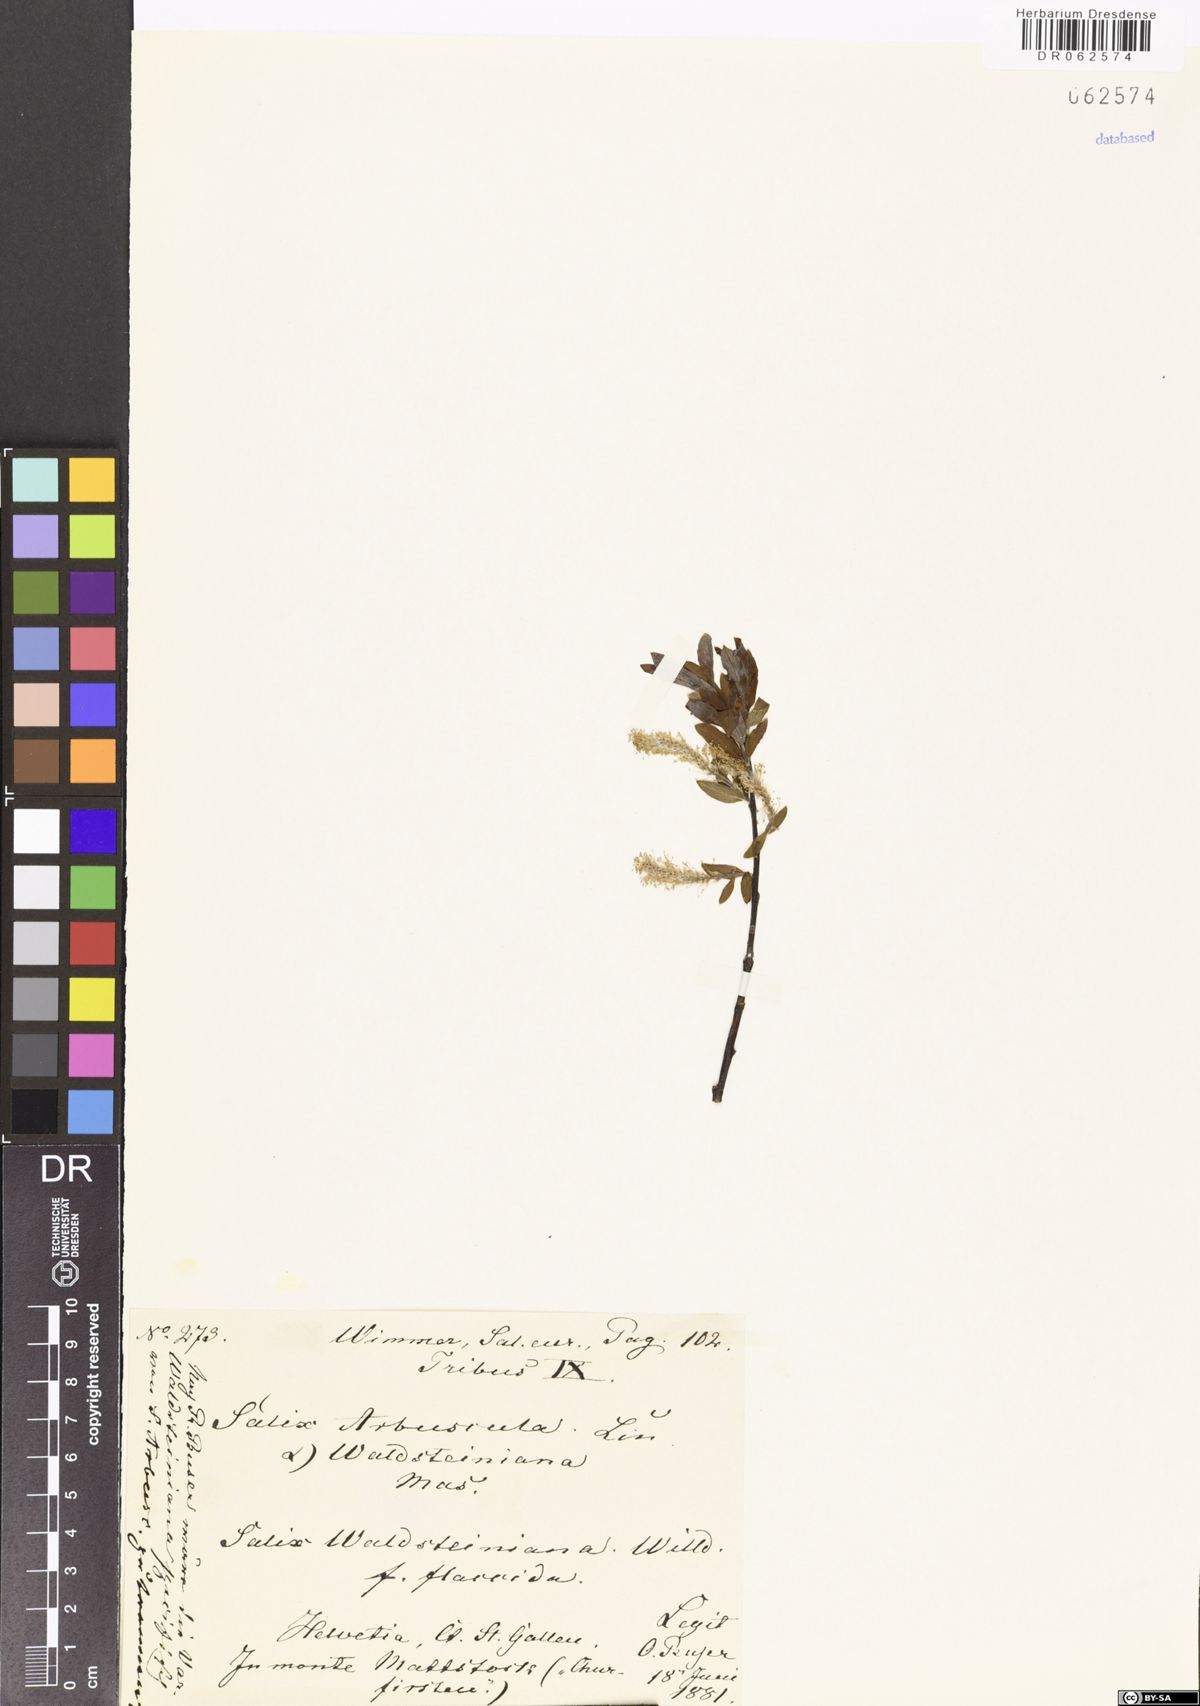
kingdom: Plantae
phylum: Tracheophyta
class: Magnoliopsida
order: Malpighiales
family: Salicaceae
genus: Salix
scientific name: Salix waldsteiniana
